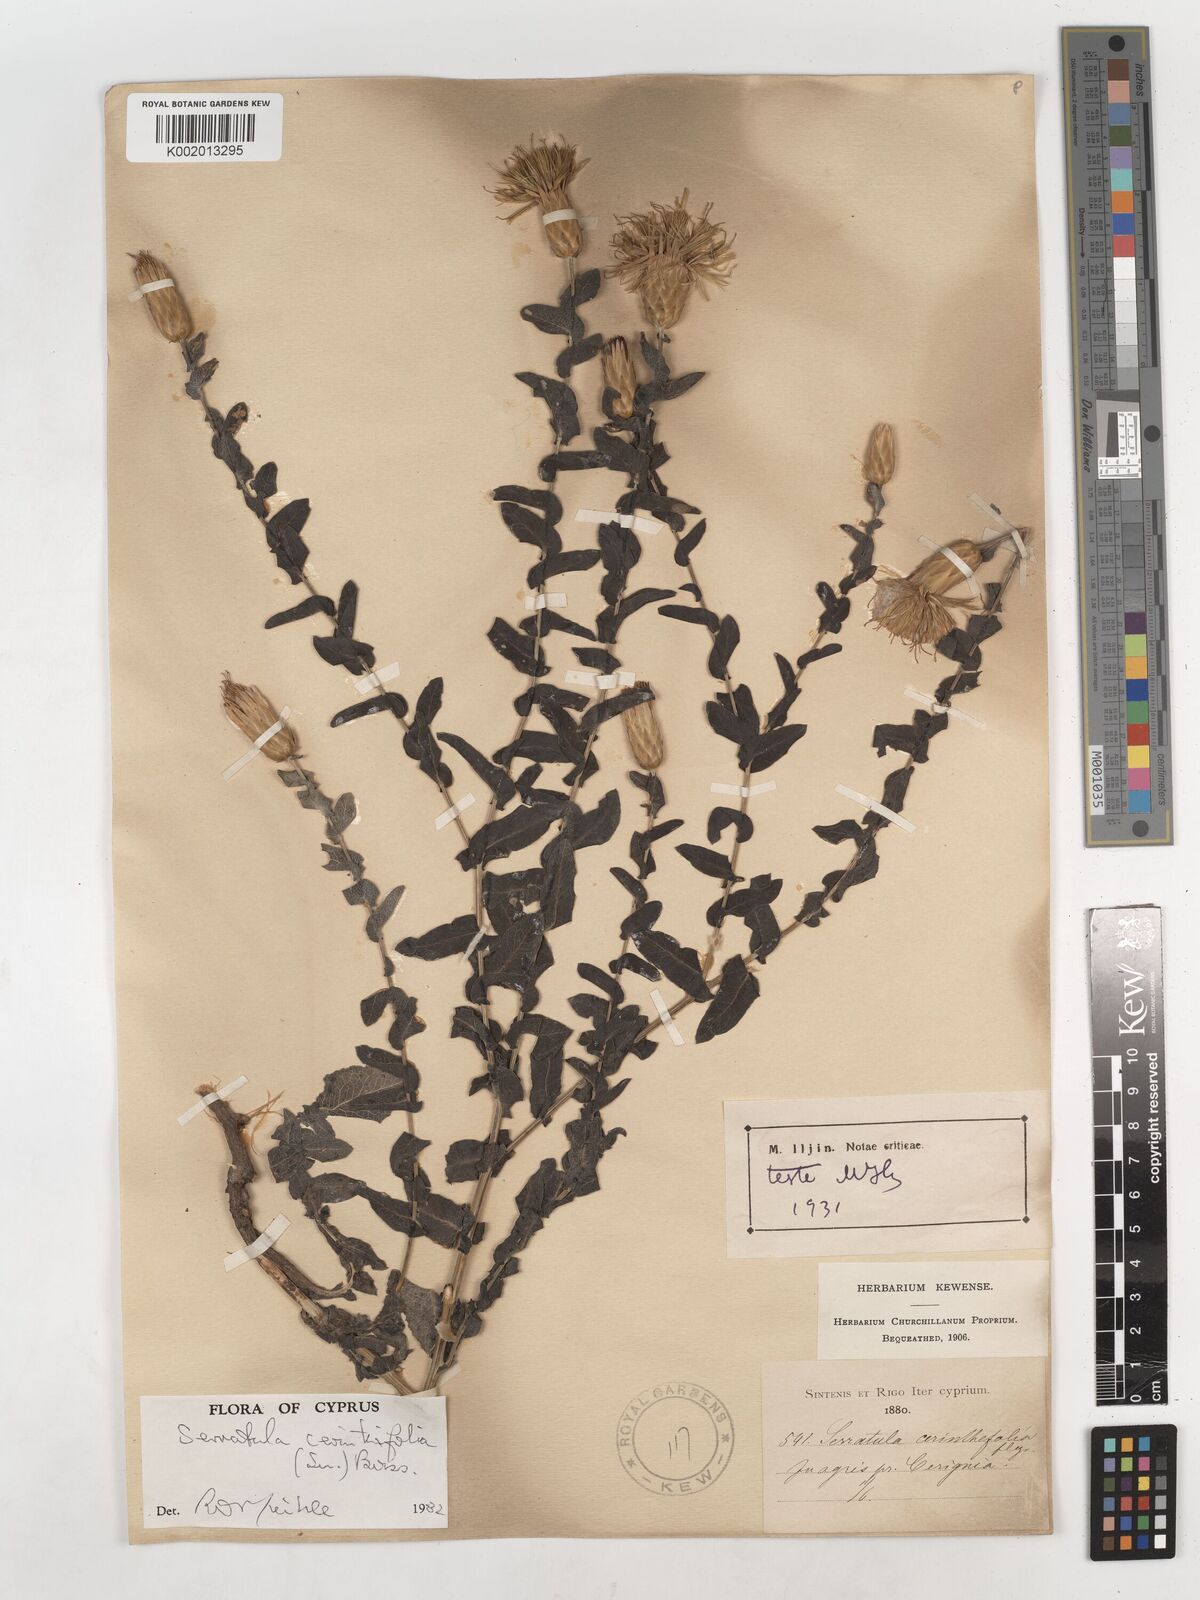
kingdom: Plantae
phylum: Tracheophyta
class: Magnoliopsida
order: Asterales
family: Asteraceae
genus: Klasea
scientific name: Klasea cerinthifolia
